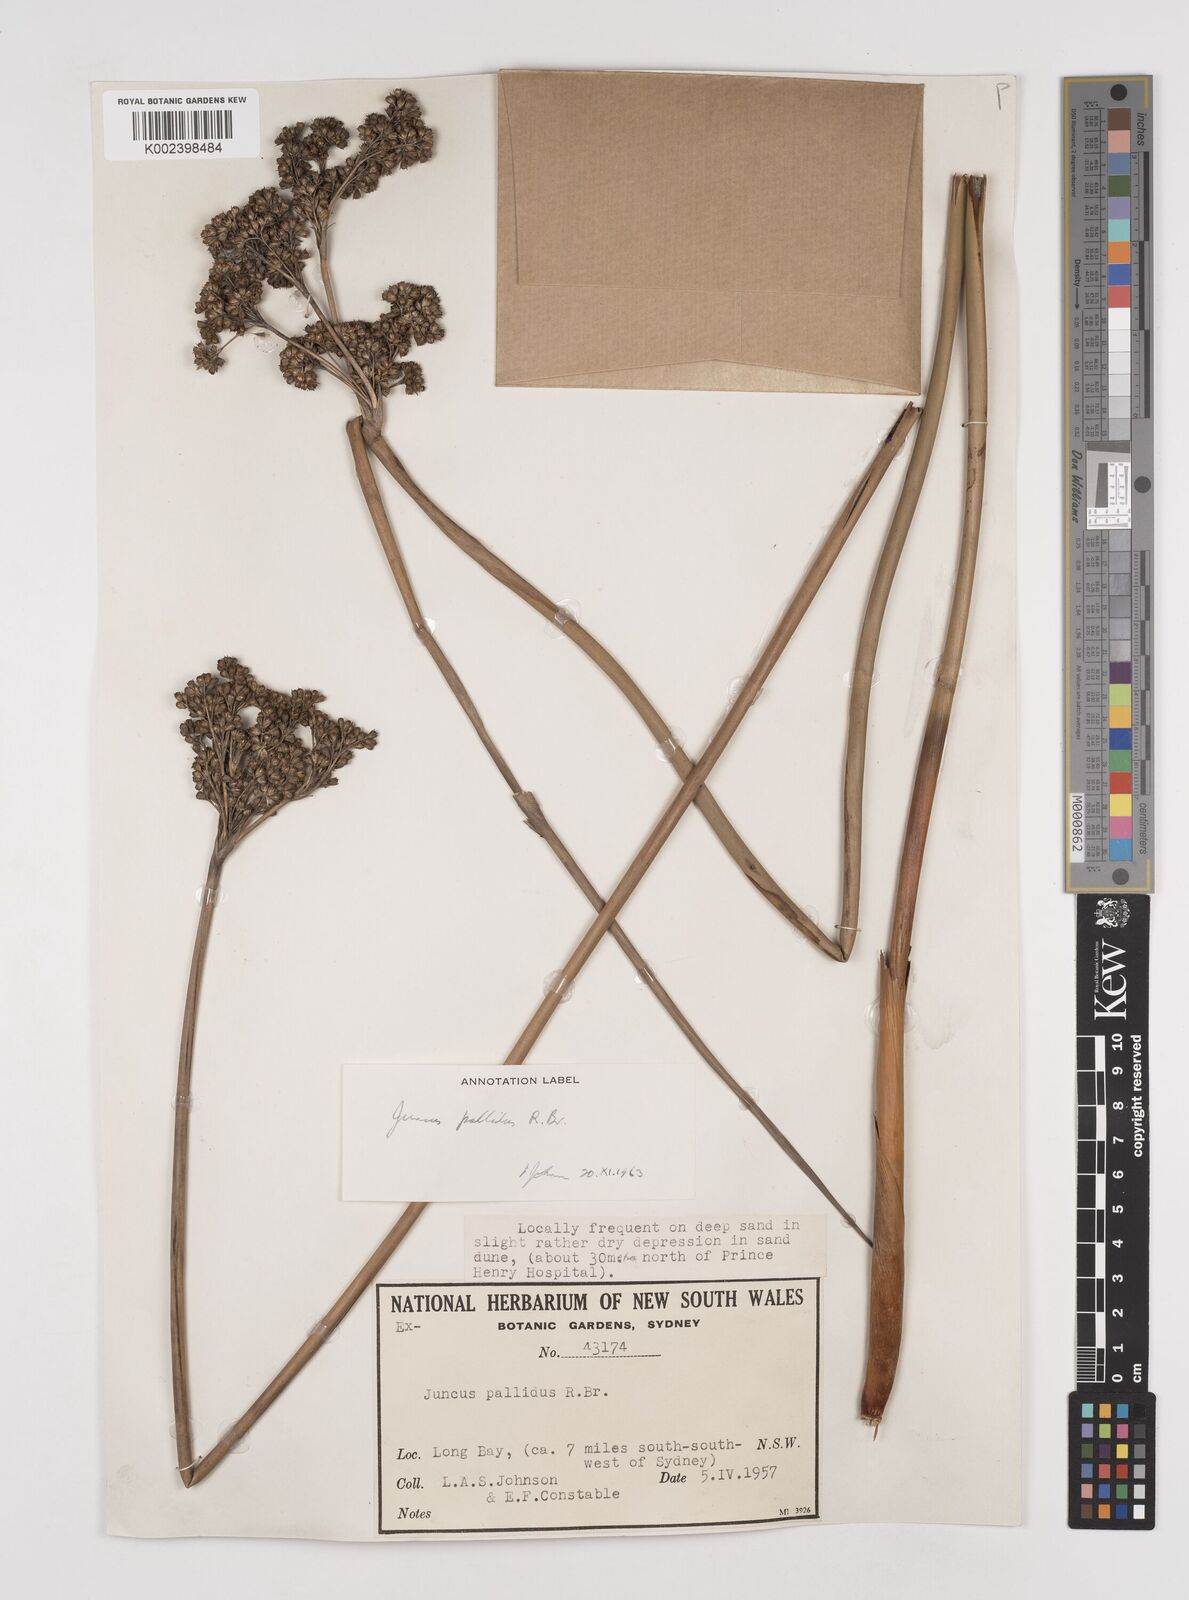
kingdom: Plantae
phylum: Tracheophyta
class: Liliopsida
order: Poales
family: Juncaceae
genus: Juncus
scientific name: Juncus pallidus
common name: Great soft-rush
